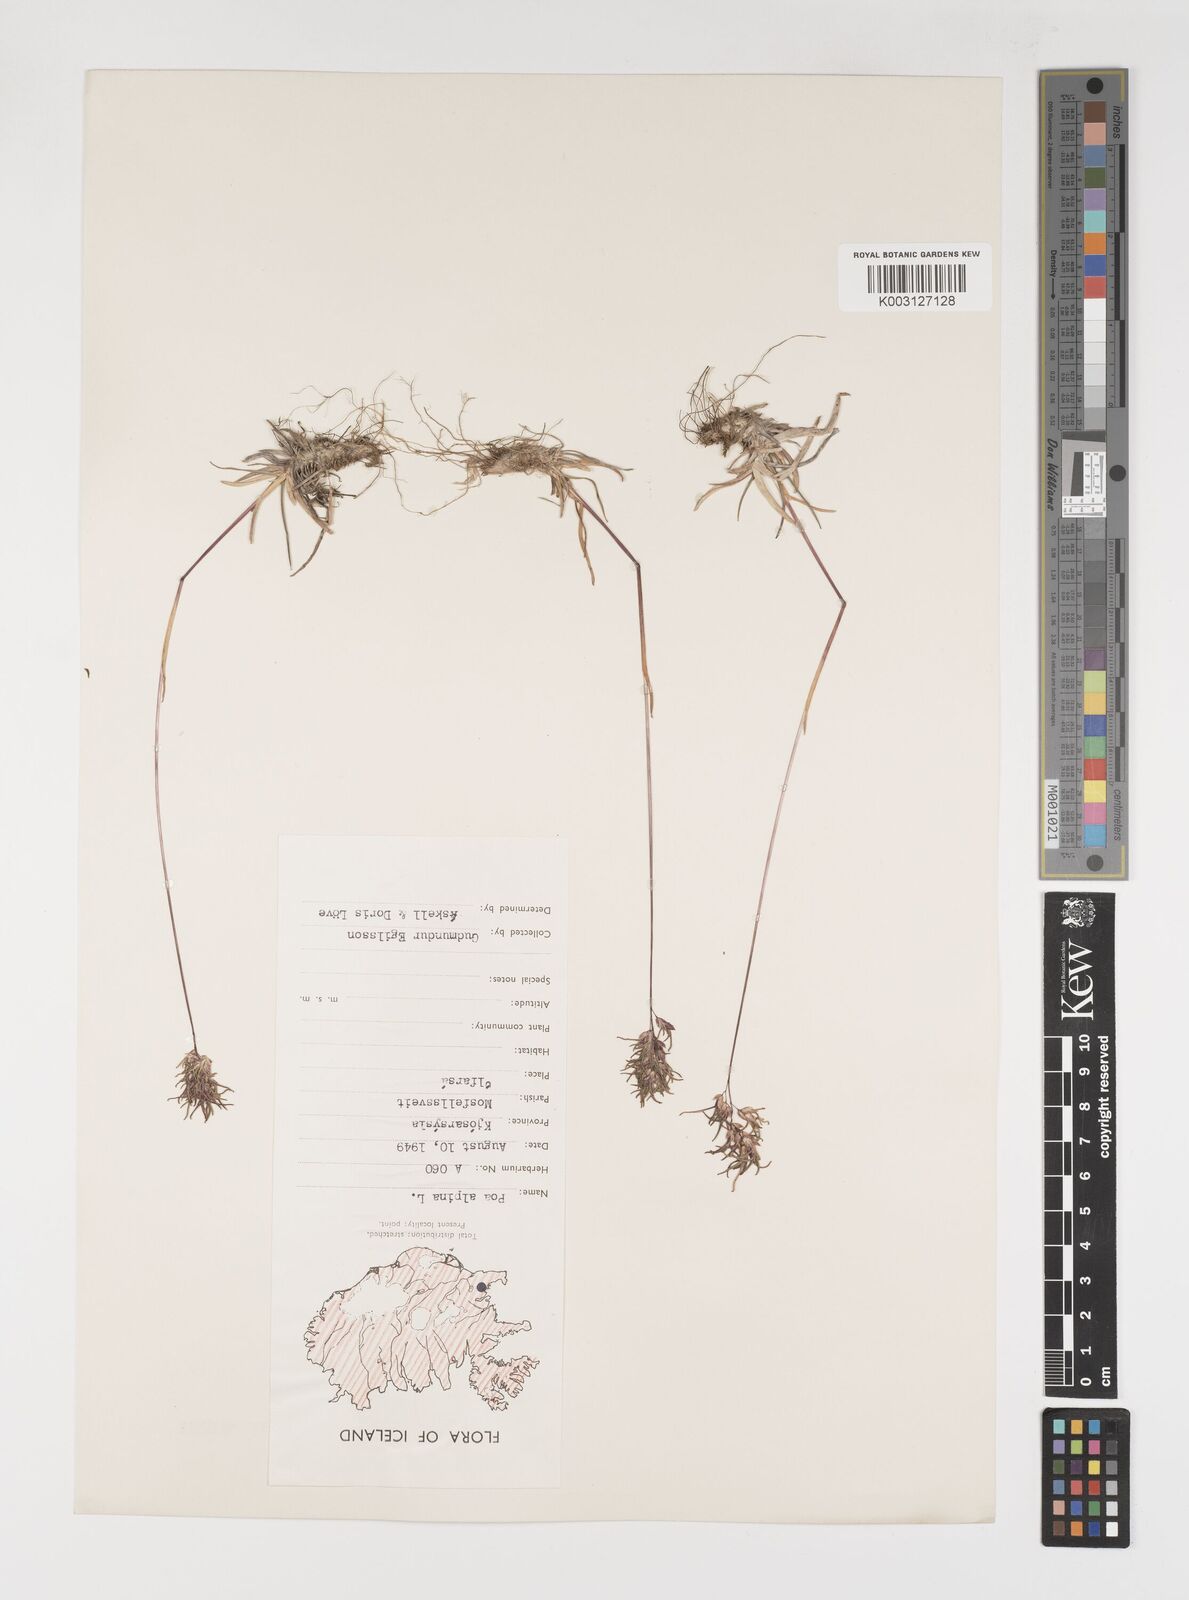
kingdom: Plantae
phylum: Tracheophyta
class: Liliopsida
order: Poales
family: Poaceae
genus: Poa
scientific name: Poa alpina
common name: Alpine bluegrass
